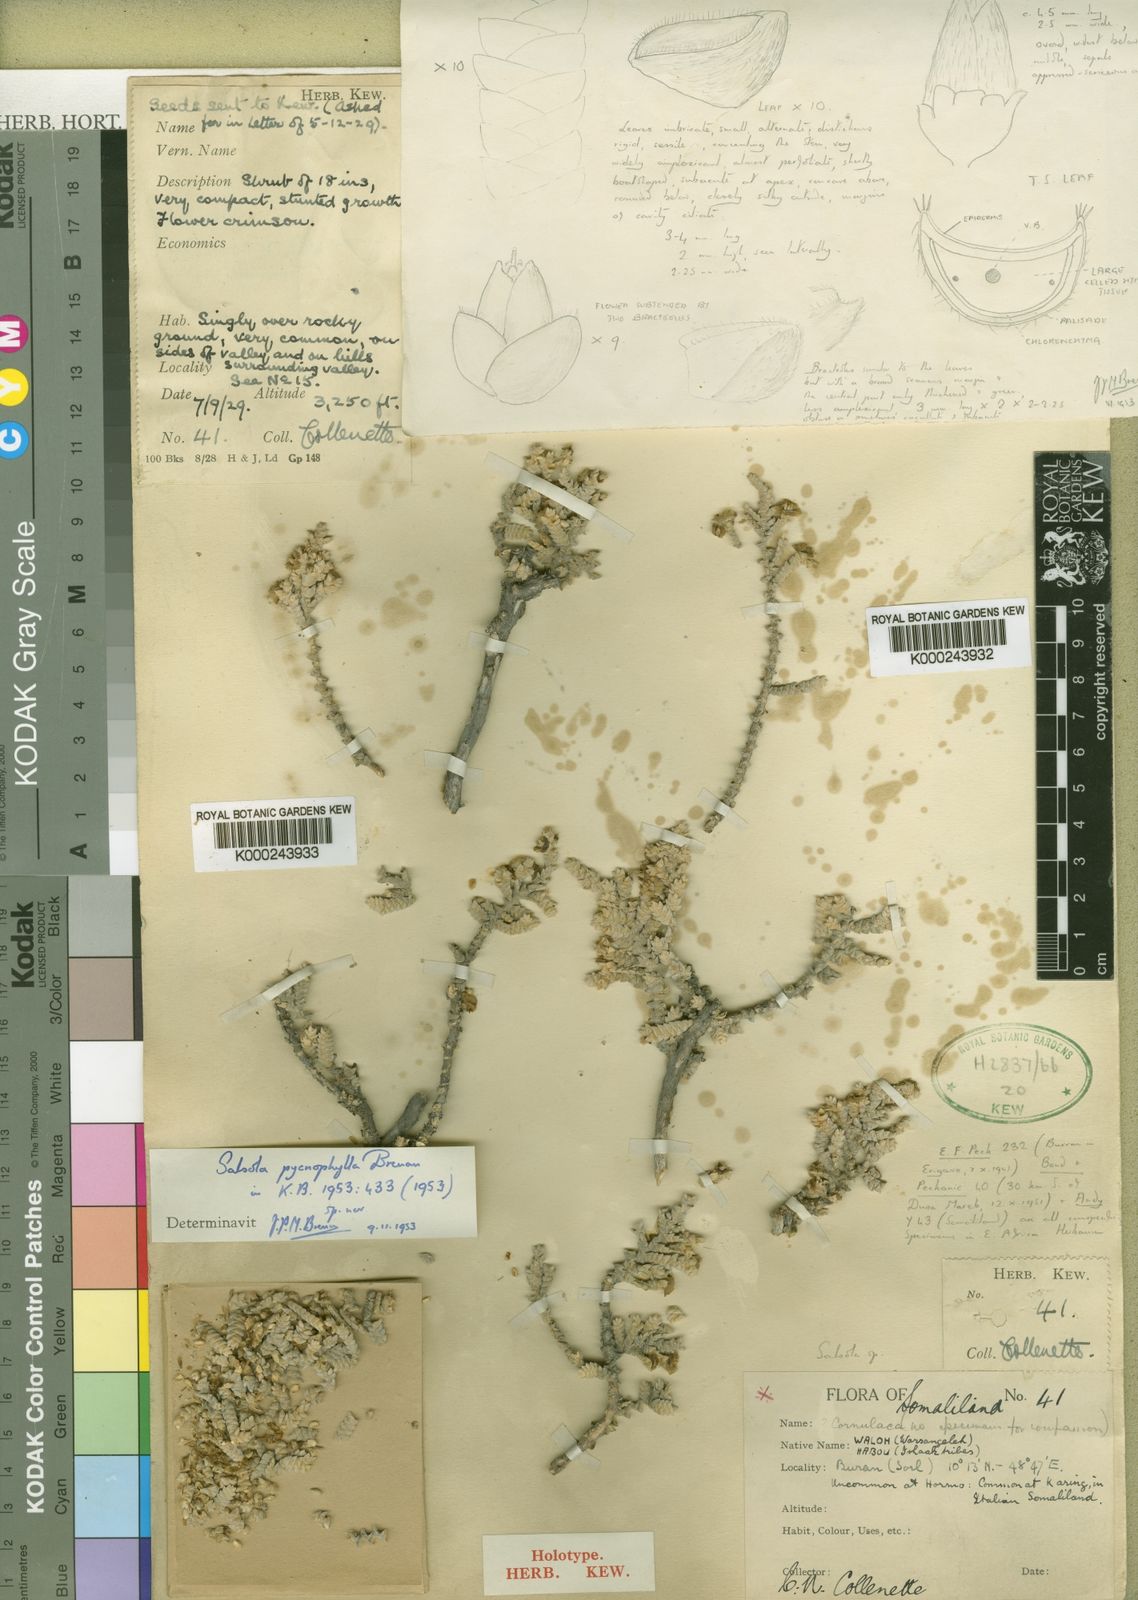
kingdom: Plantae
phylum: Tracheophyta
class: Magnoliopsida
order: Caryophyllales
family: Amaranthaceae
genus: Kaviria
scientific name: Kaviria pycnophylla
